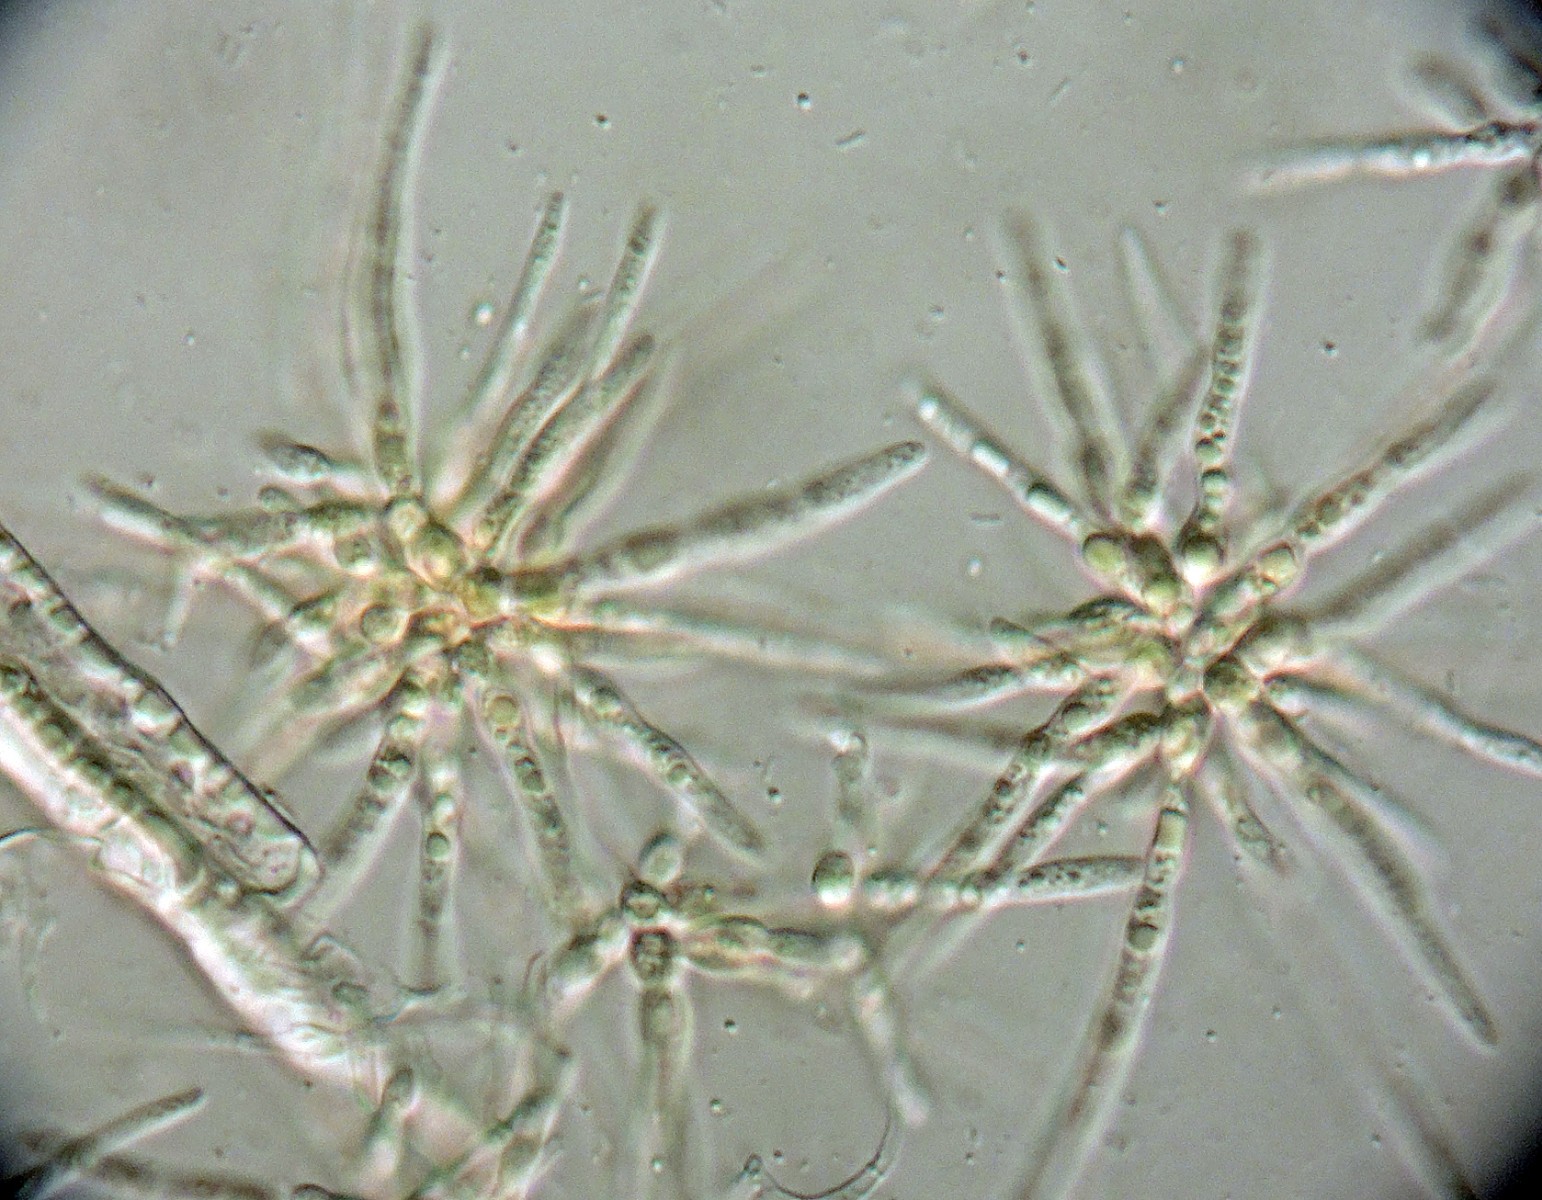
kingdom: Fungi
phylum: Ascomycota
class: Sordariomycetes
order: Xylariales
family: Xylariaceae
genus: Digitodochium
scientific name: Digitodochium rhodoleucum
